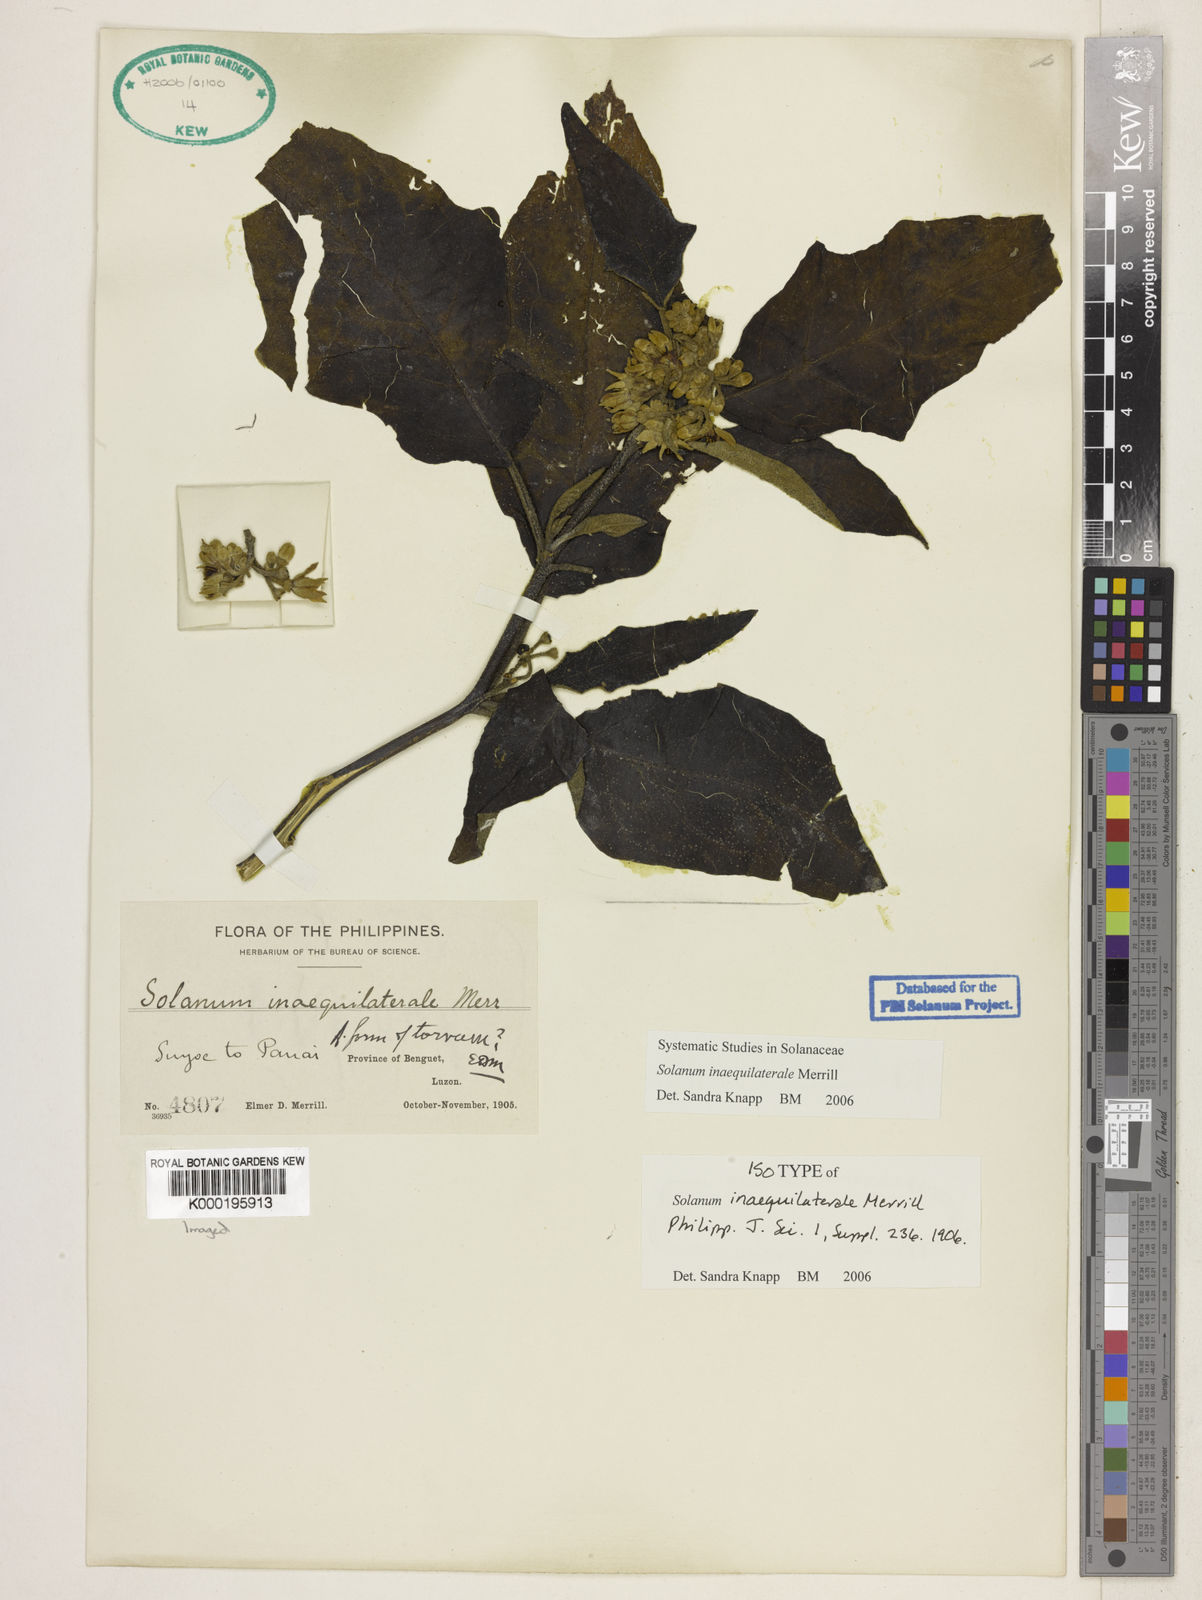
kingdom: Plantae
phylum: Tracheophyta
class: Magnoliopsida
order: Solanales
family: Solanaceae
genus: Solanum
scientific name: Solanum pseudosaponaceum
